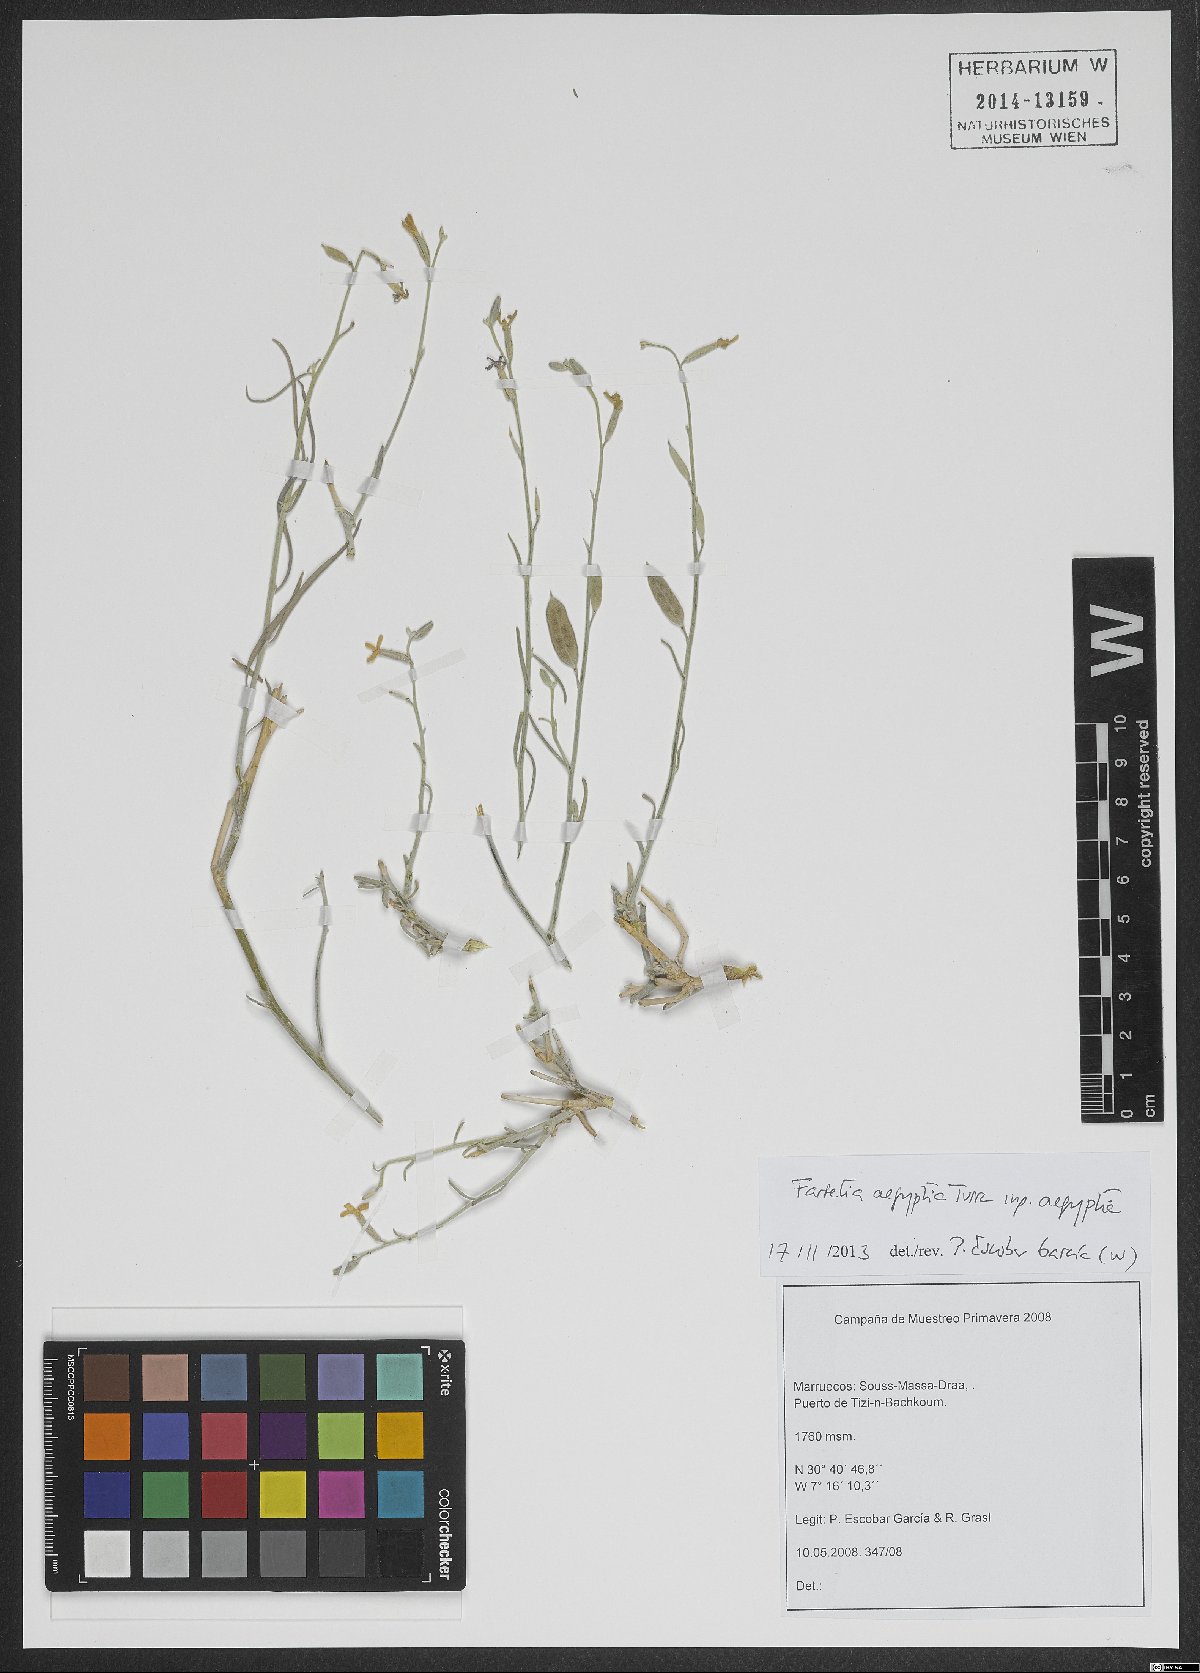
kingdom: Plantae
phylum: Tracheophyta
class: Magnoliopsida
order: Brassicales
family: Brassicaceae
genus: Farsetia
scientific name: Farsetia aegyptia
